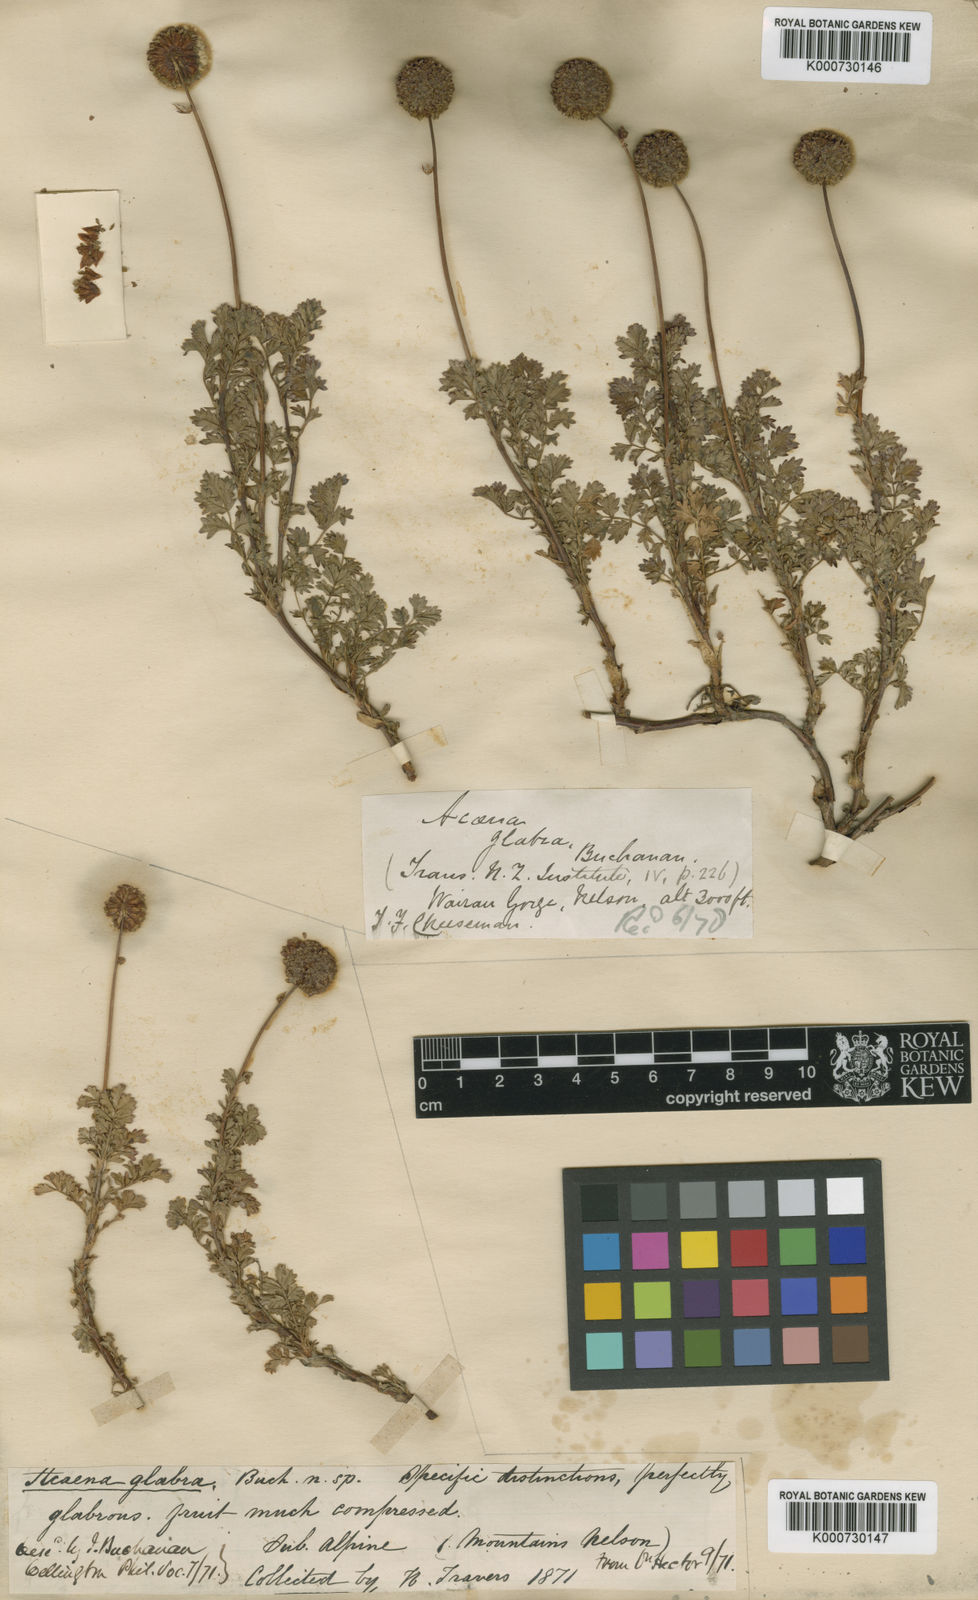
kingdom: Plantae
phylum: Tracheophyta
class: Magnoliopsida
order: Rosales
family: Rosaceae
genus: Acaena
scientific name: Acaena glabra
